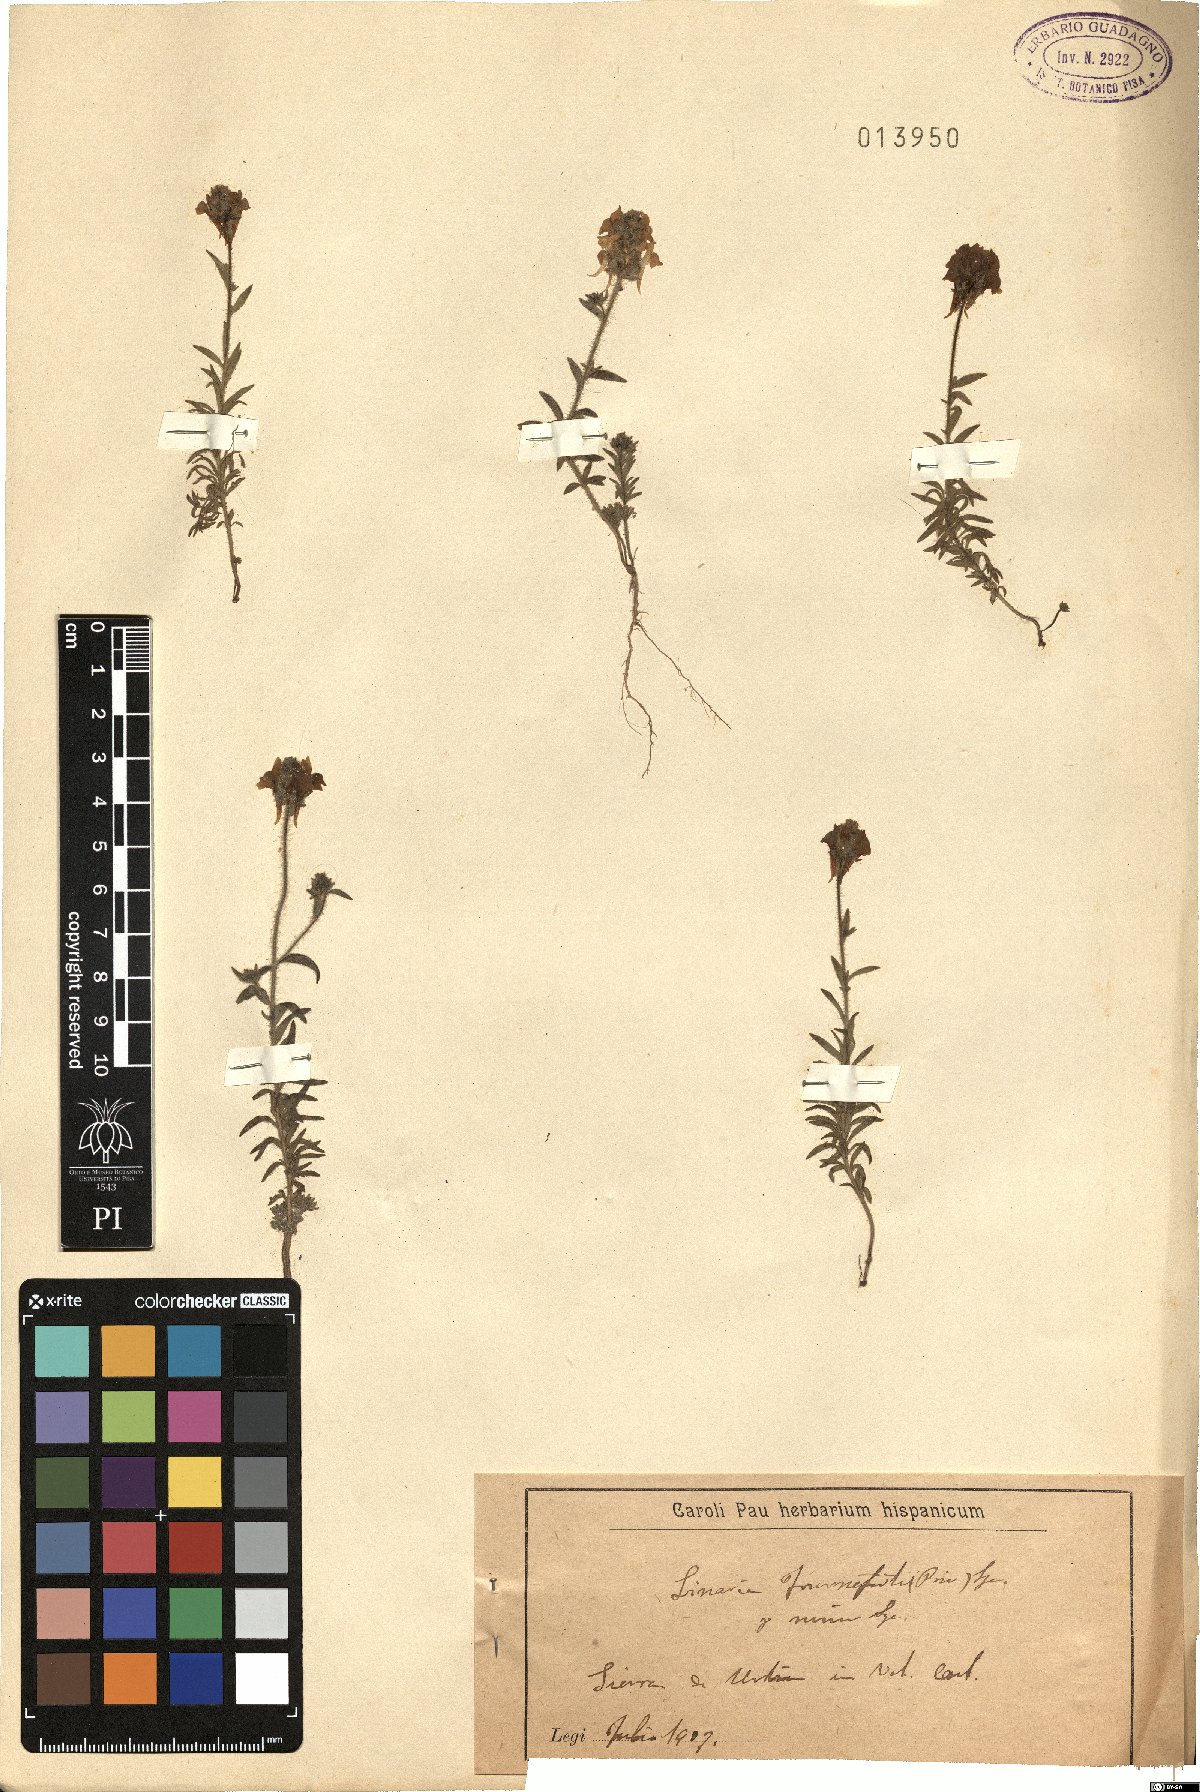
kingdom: Plantae
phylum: Tracheophyta
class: Magnoliopsida
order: Lamiales
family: Plantaginaceae
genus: Linaria
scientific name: Linaria saxatilis
